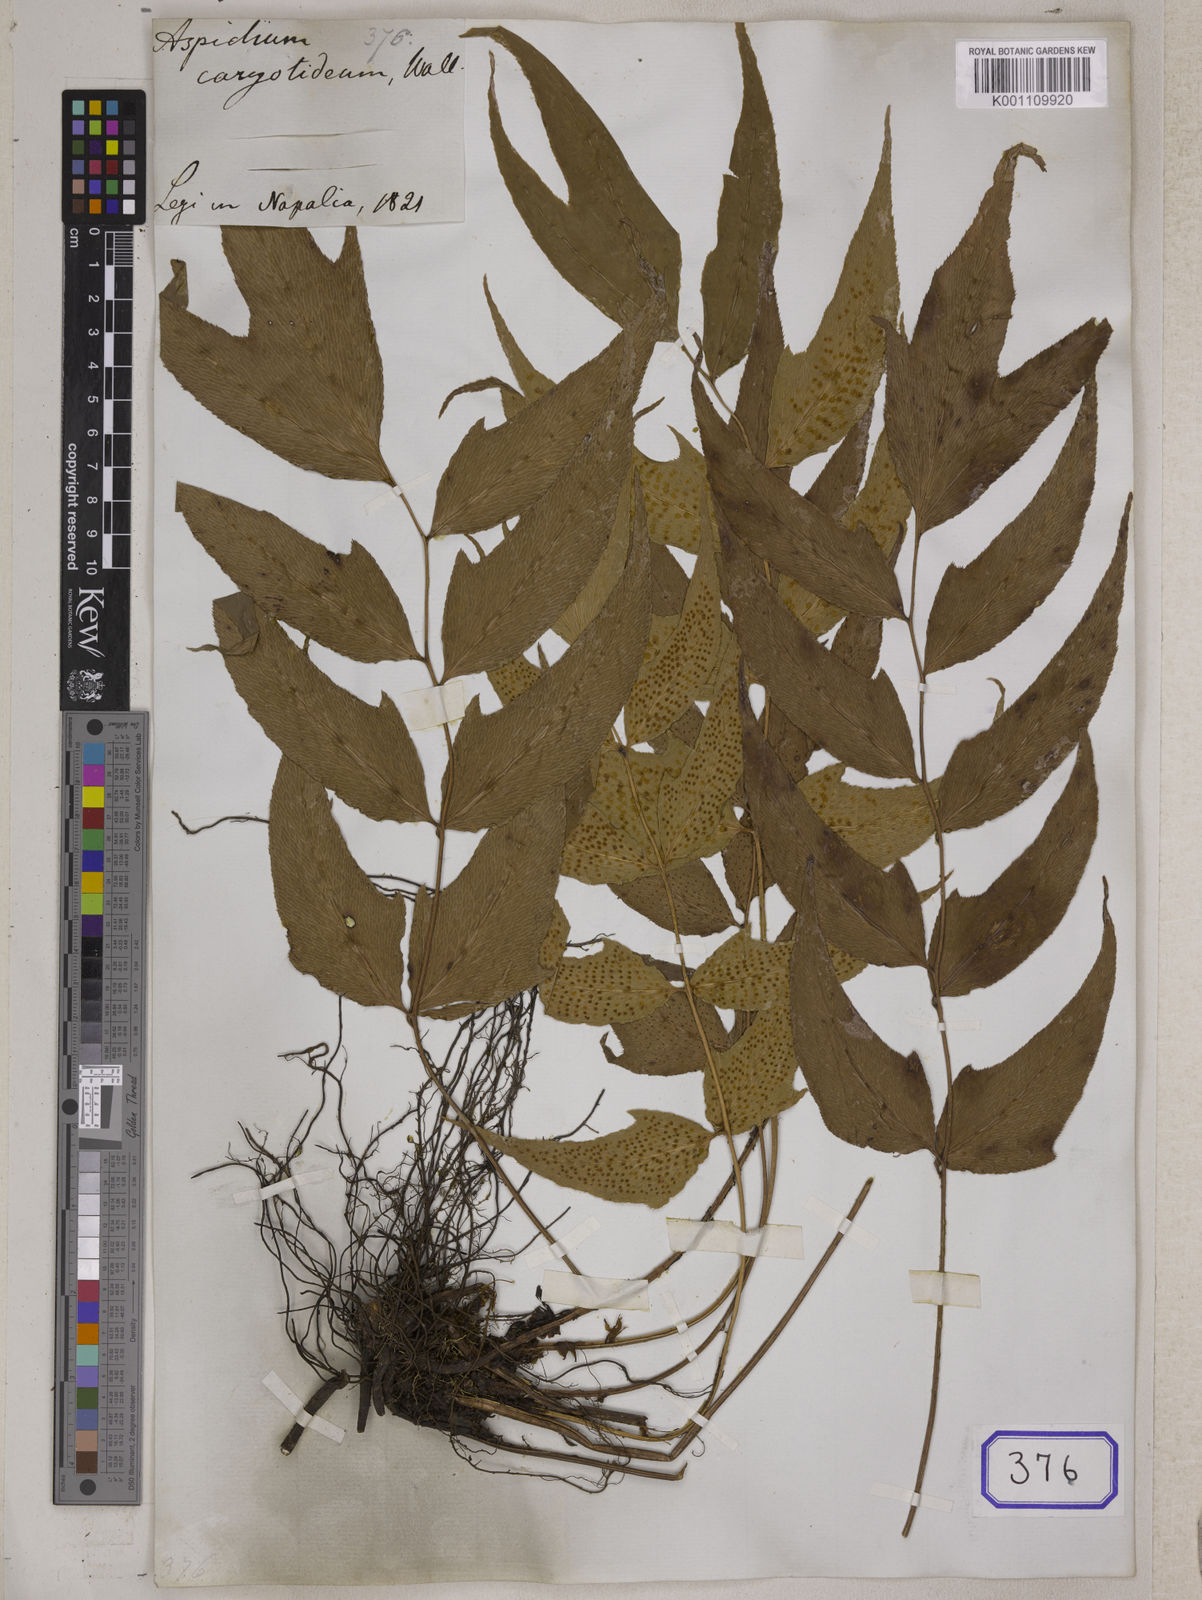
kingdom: Plantae
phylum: Tracheophyta
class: Polypodiopsida
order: Polypodiales
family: Tectariaceae
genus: Tectaria
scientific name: Tectaria Aspidium spec
